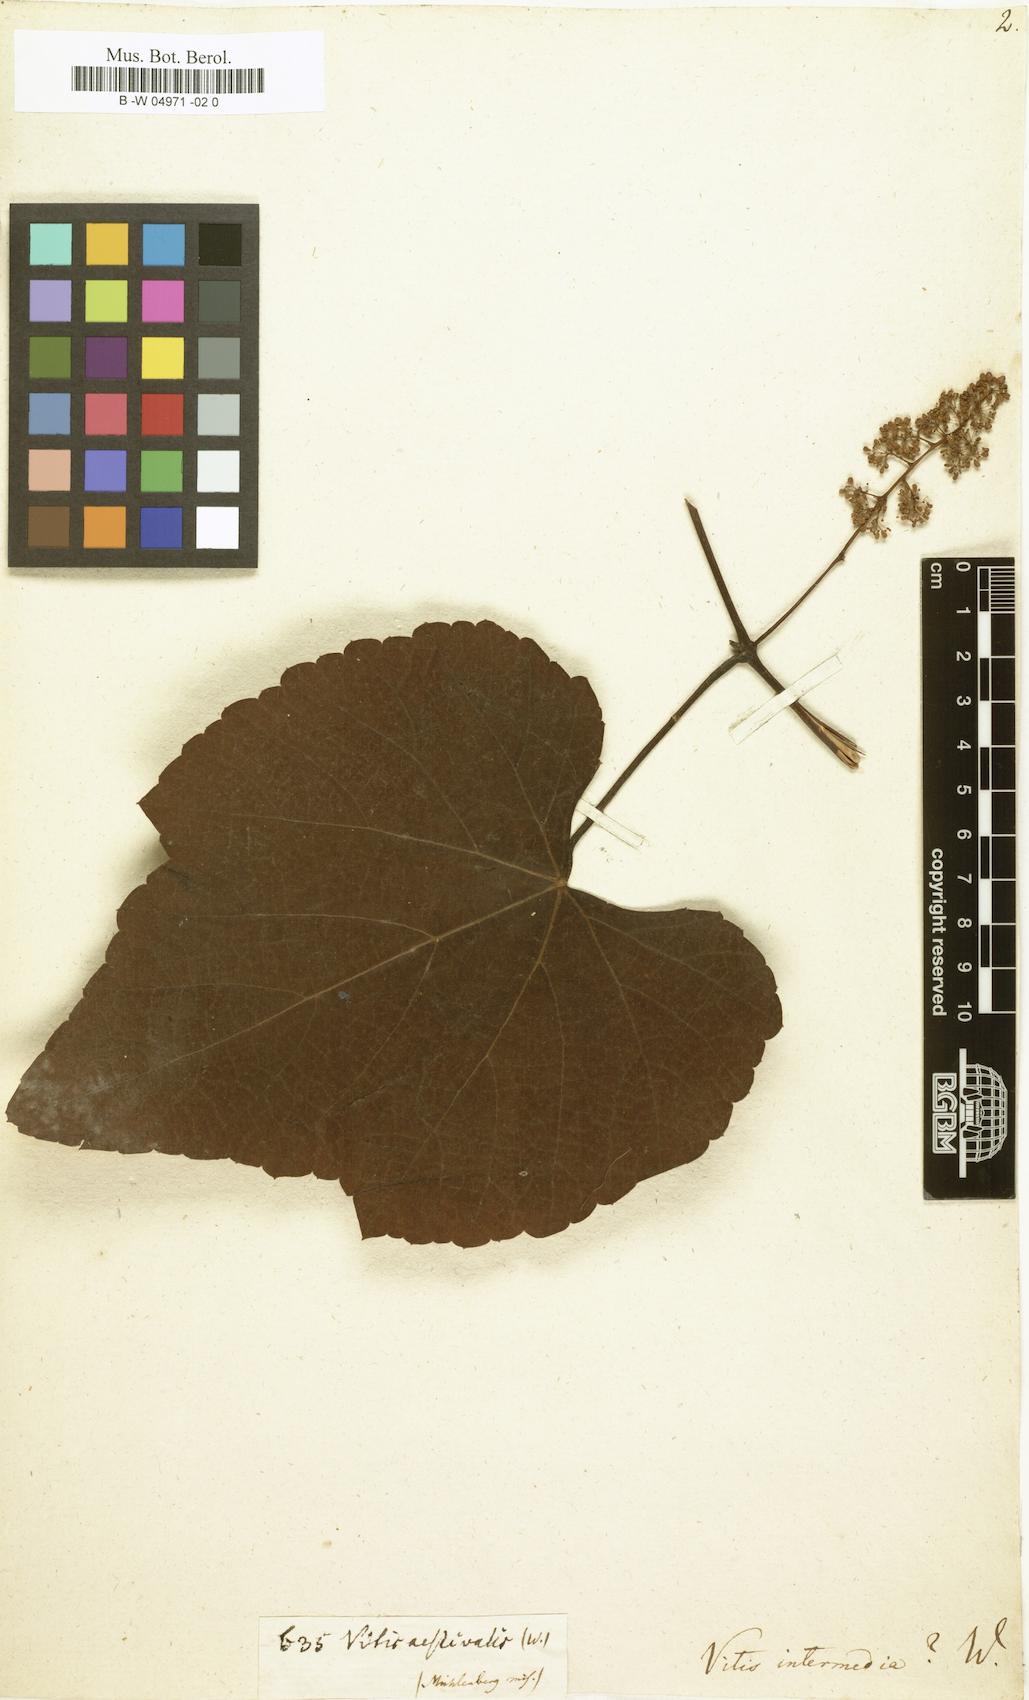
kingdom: Plantae
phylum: Tracheophyta
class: Magnoliopsida
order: Vitales
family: Vitaceae
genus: Vitis
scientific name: Vitis aestivalis
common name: Pigeon grape
